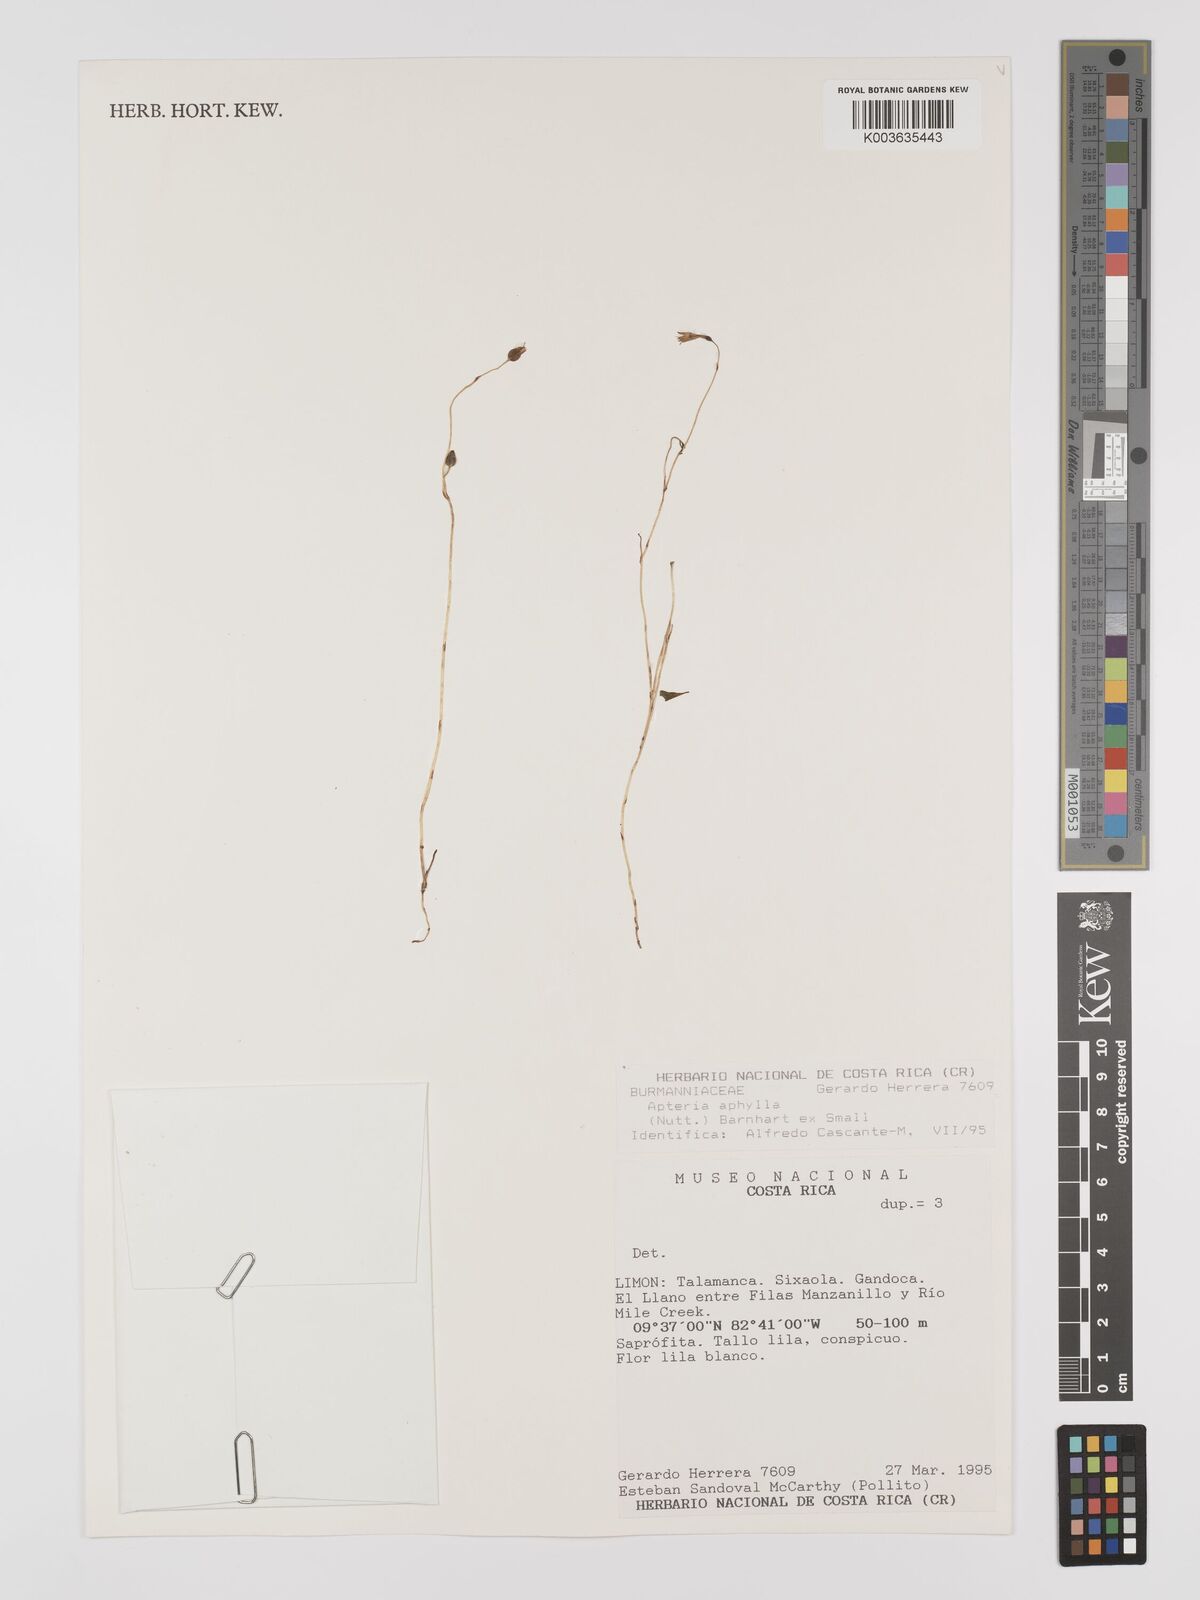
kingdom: Plantae
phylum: Tracheophyta
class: Liliopsida
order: Dioscoreales
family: Burmanniaceae
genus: Apteria
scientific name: Apteria aphylla
